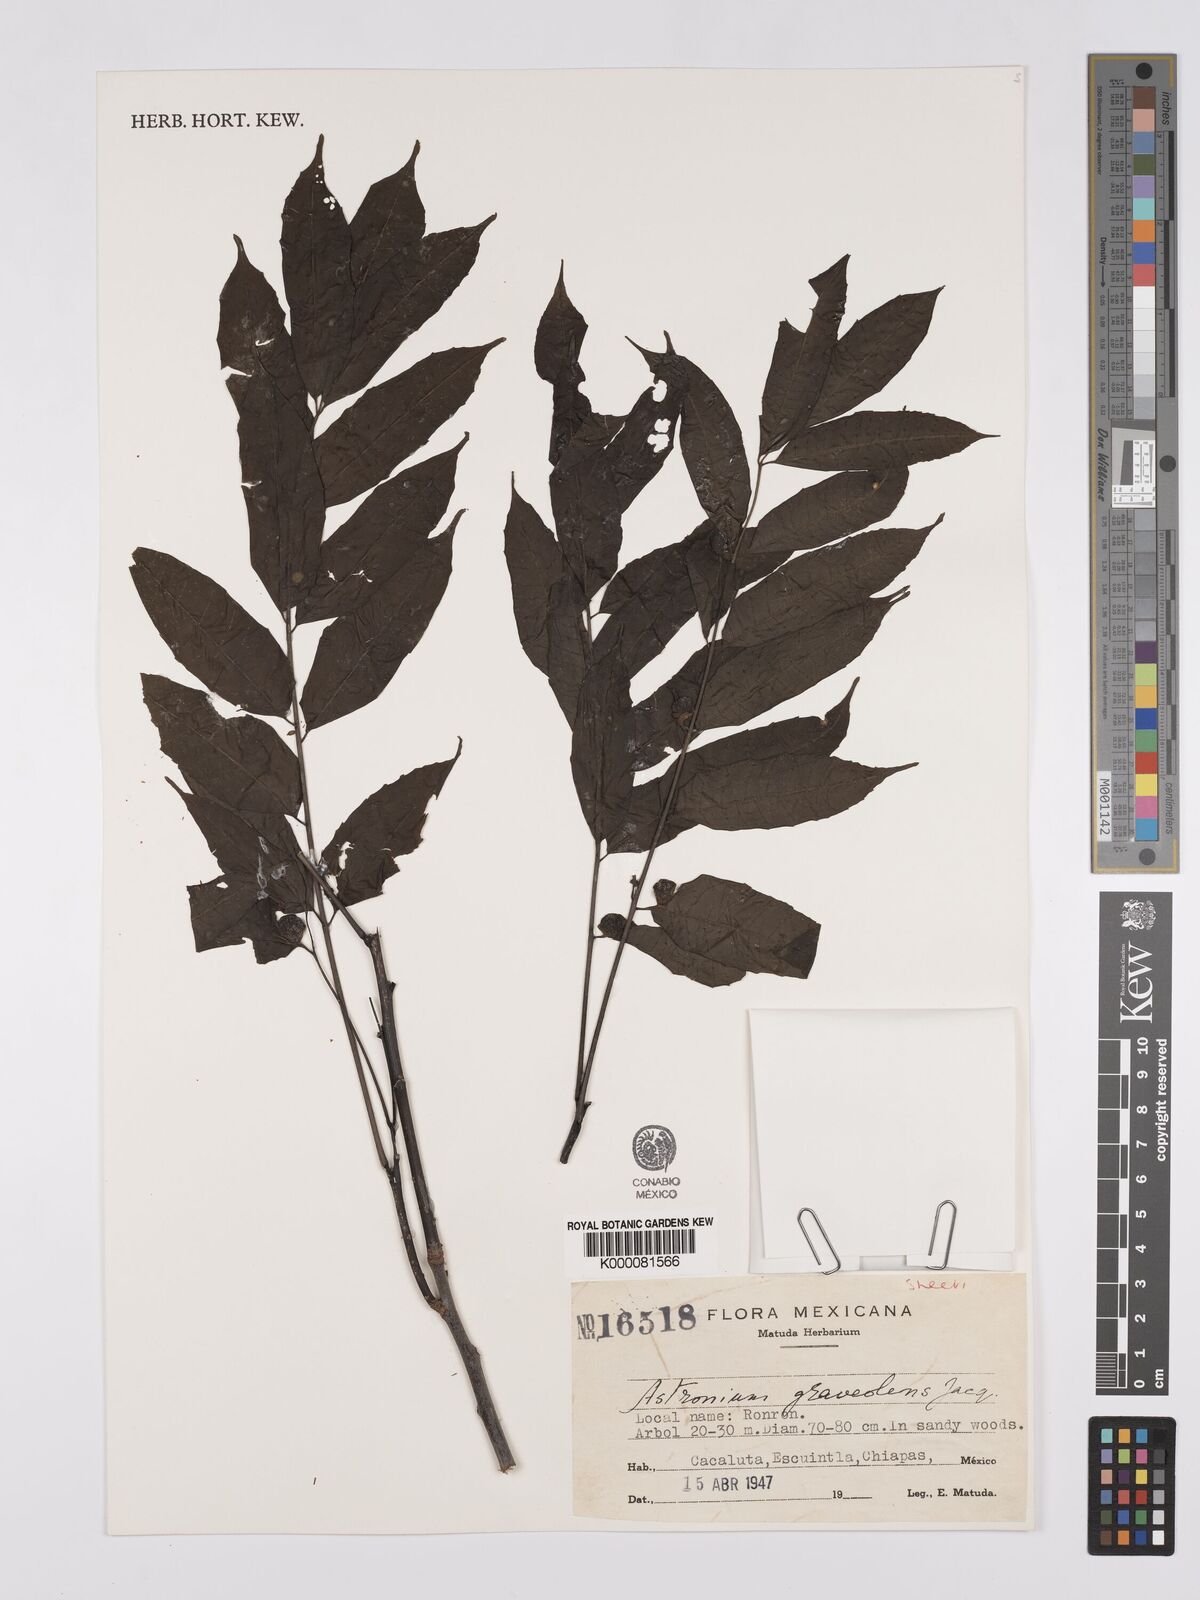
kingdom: Plantae
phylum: Tracheophyta
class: Magnoliopsida
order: Sapindales
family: Anacardiaceae
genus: Astronium
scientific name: Astronium graveolens
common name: Glassywood
